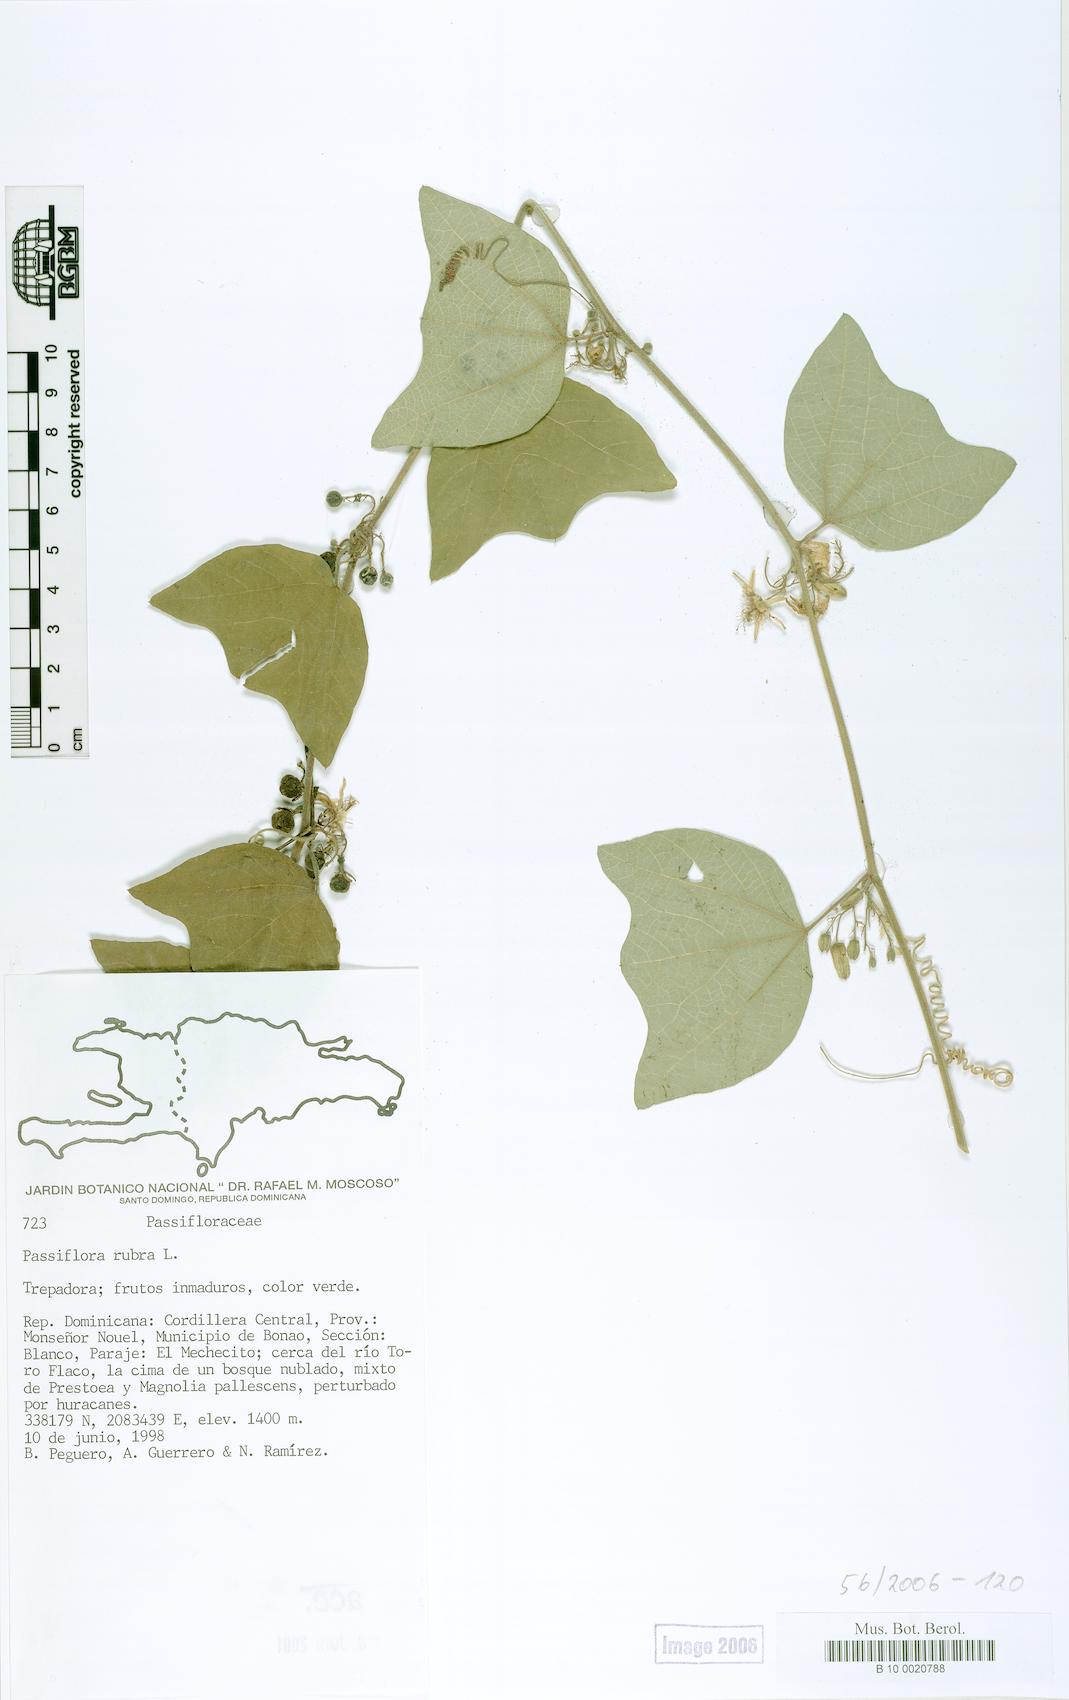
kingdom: Plantae
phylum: Tracheophyta
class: Magnoliopsida
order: Malpighiales
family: Passifloraceae
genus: Passiflora
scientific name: Passiflora rubra
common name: Snakeberry vine
